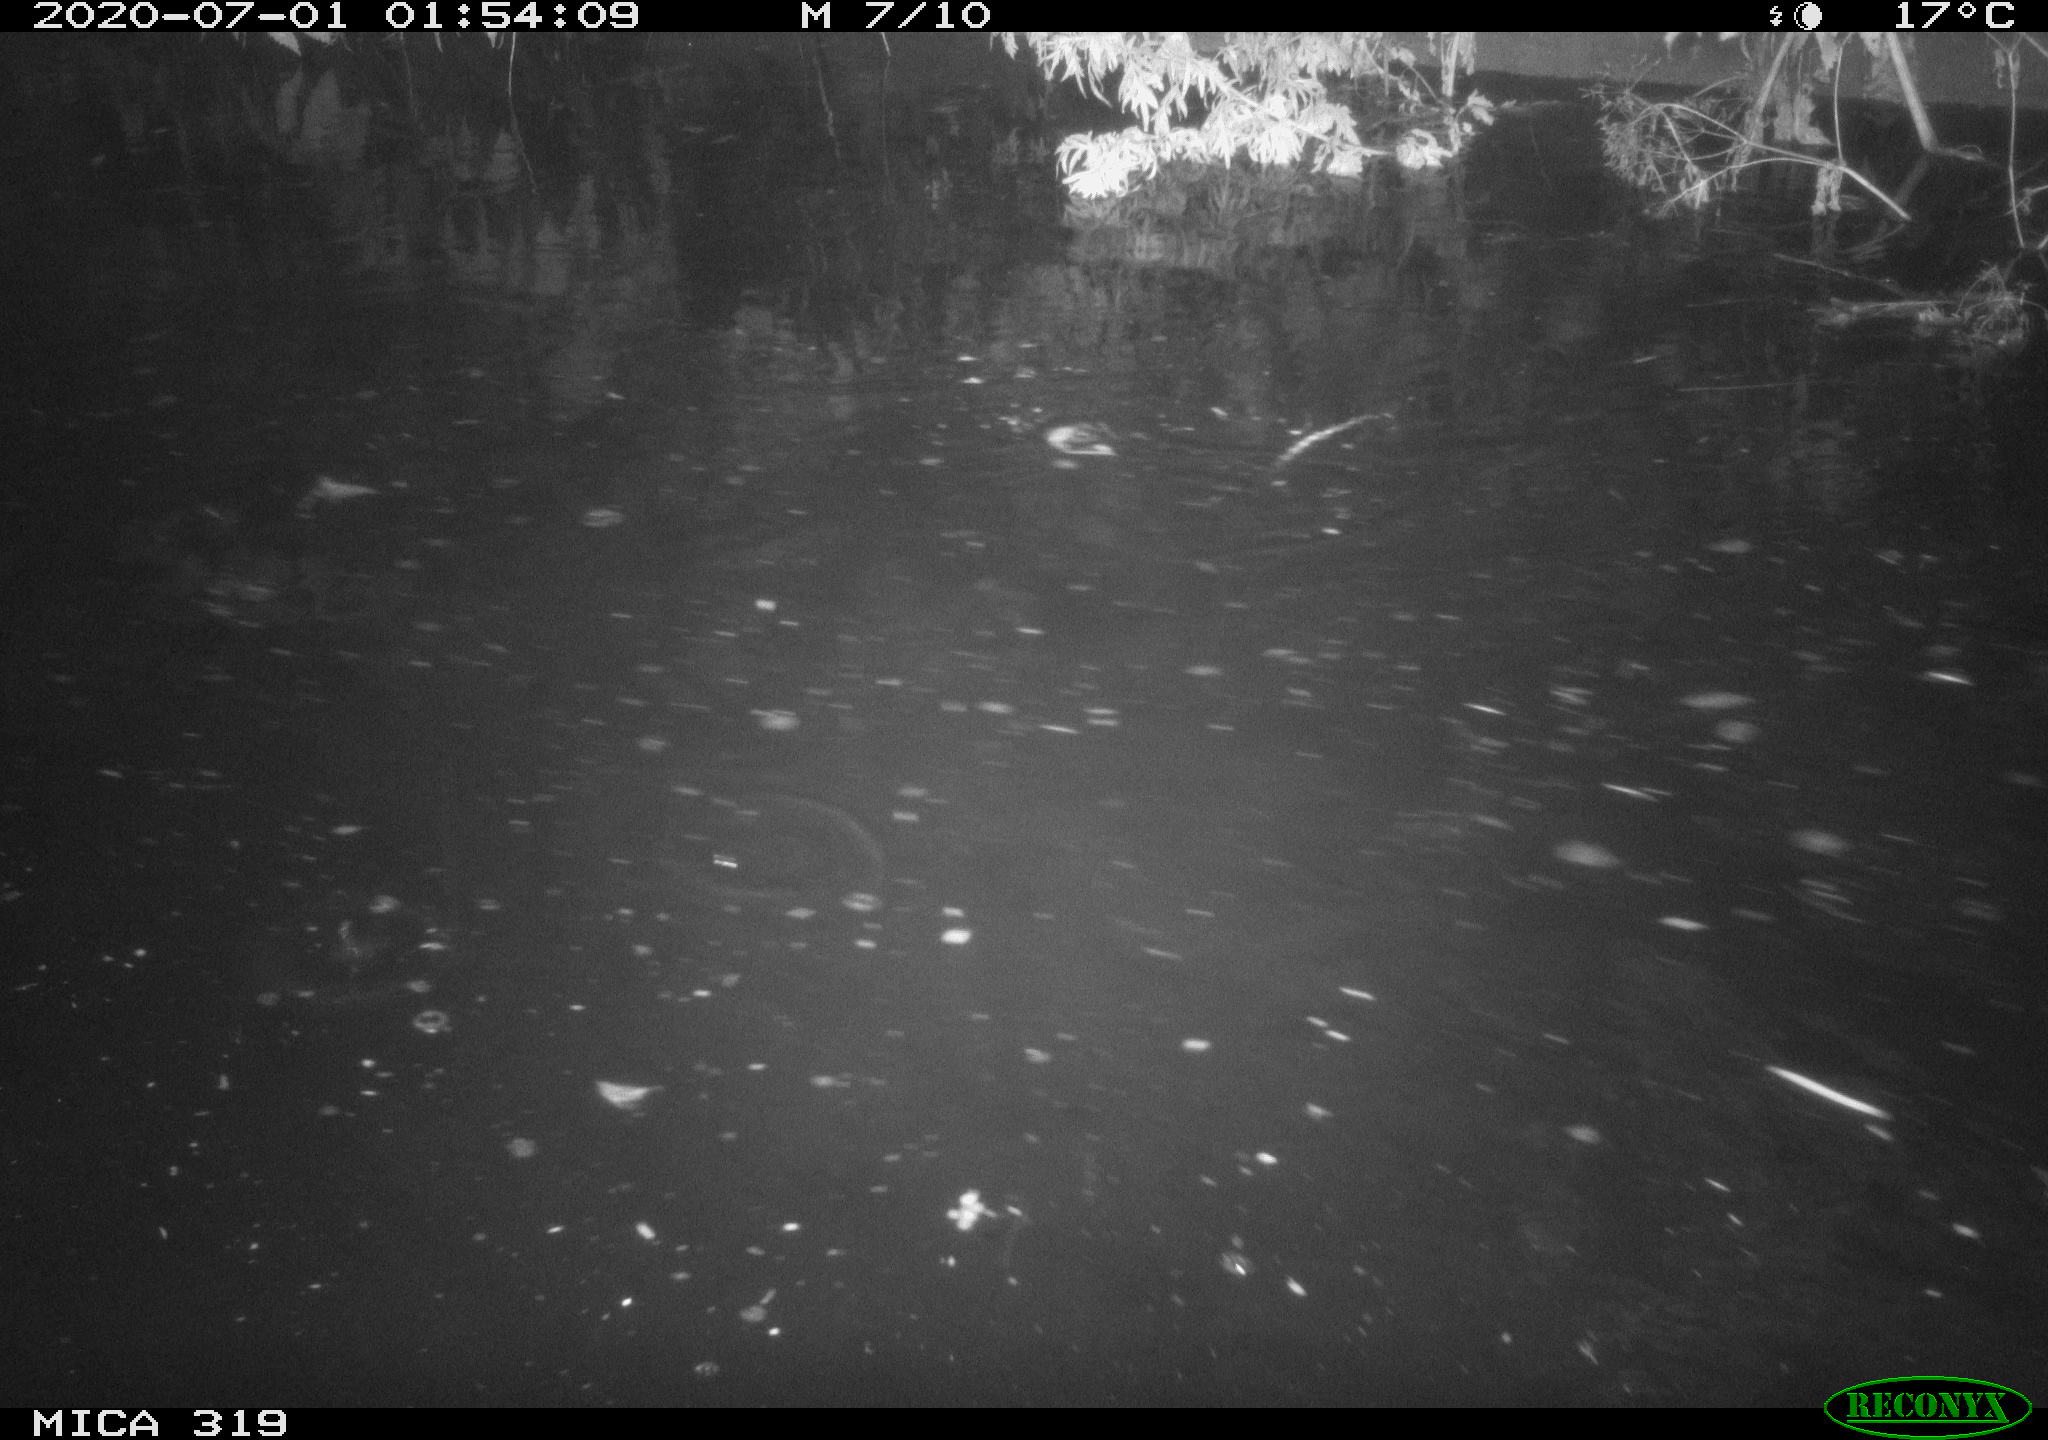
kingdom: Animalia
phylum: Chordata
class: Aves
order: Anseriformes
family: Anatidae
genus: Anas
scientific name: Anas platyrhynchos
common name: Mallard
